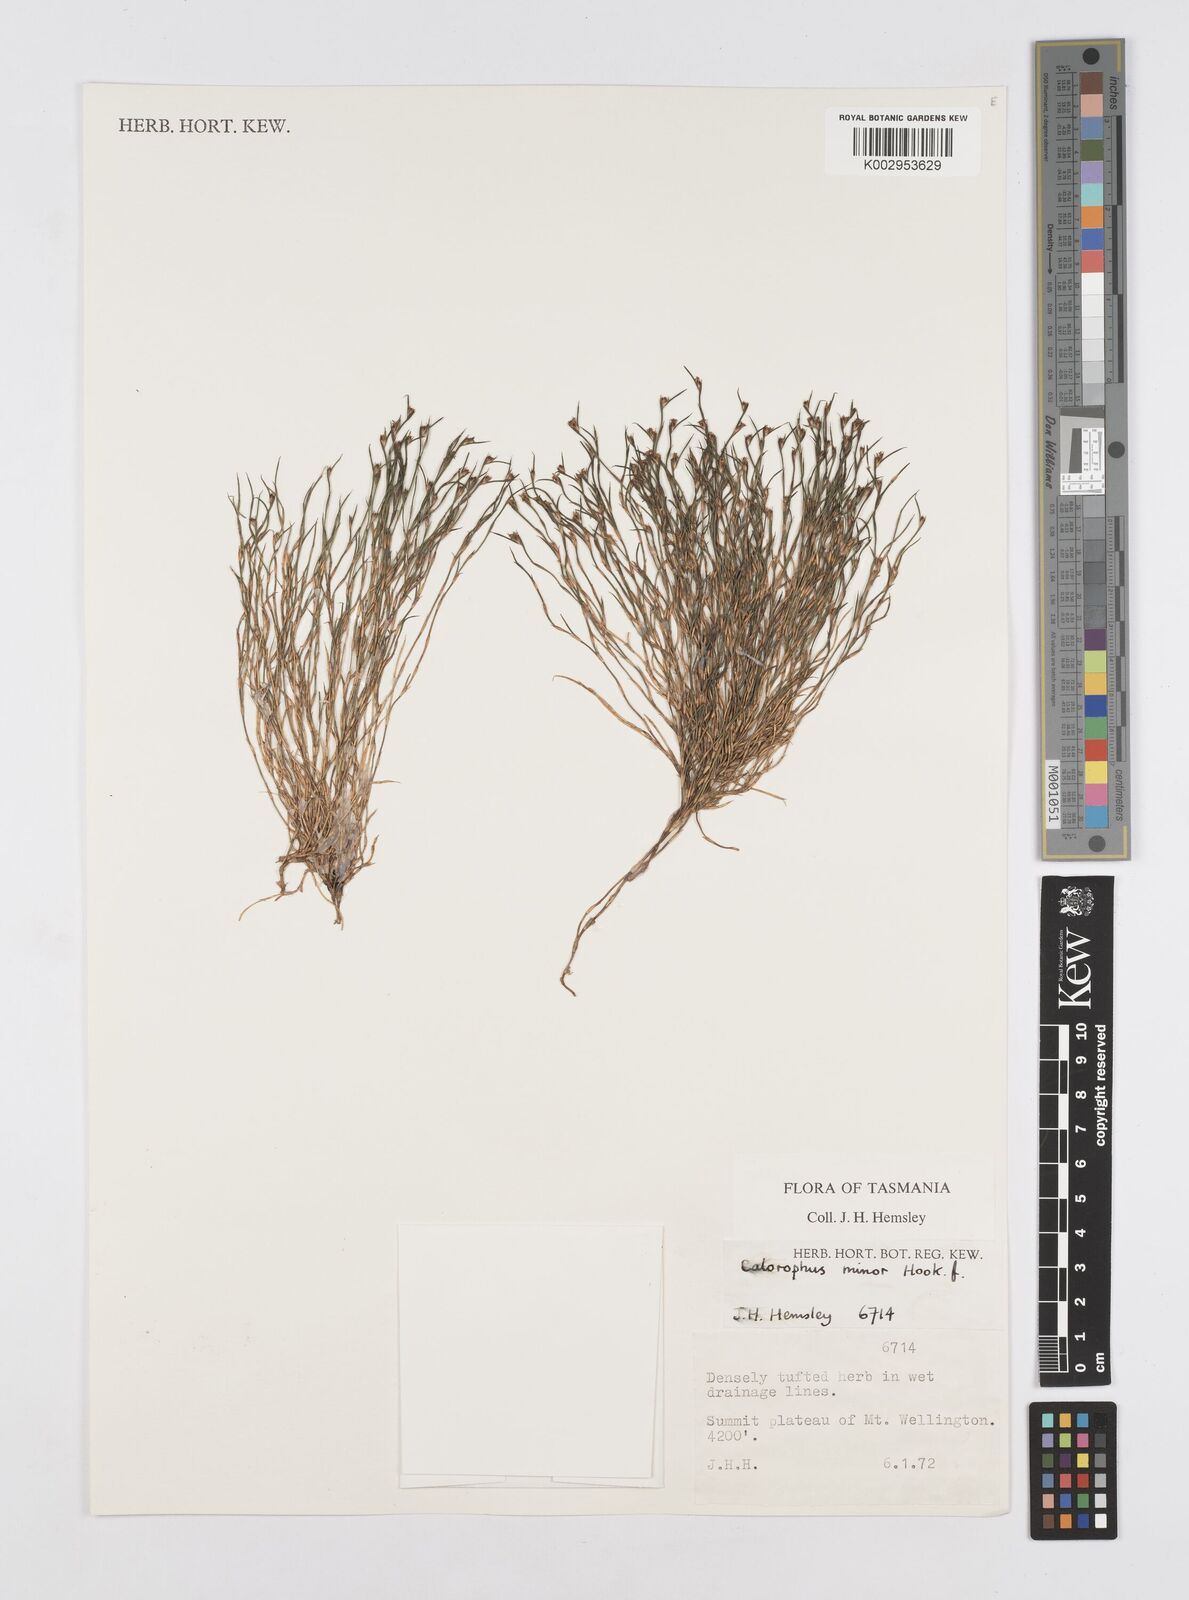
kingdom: Plantae
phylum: Tracheophyta
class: Liliopsida
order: Poales
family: Restionaceae
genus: Empodisma
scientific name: Empodisma minus
